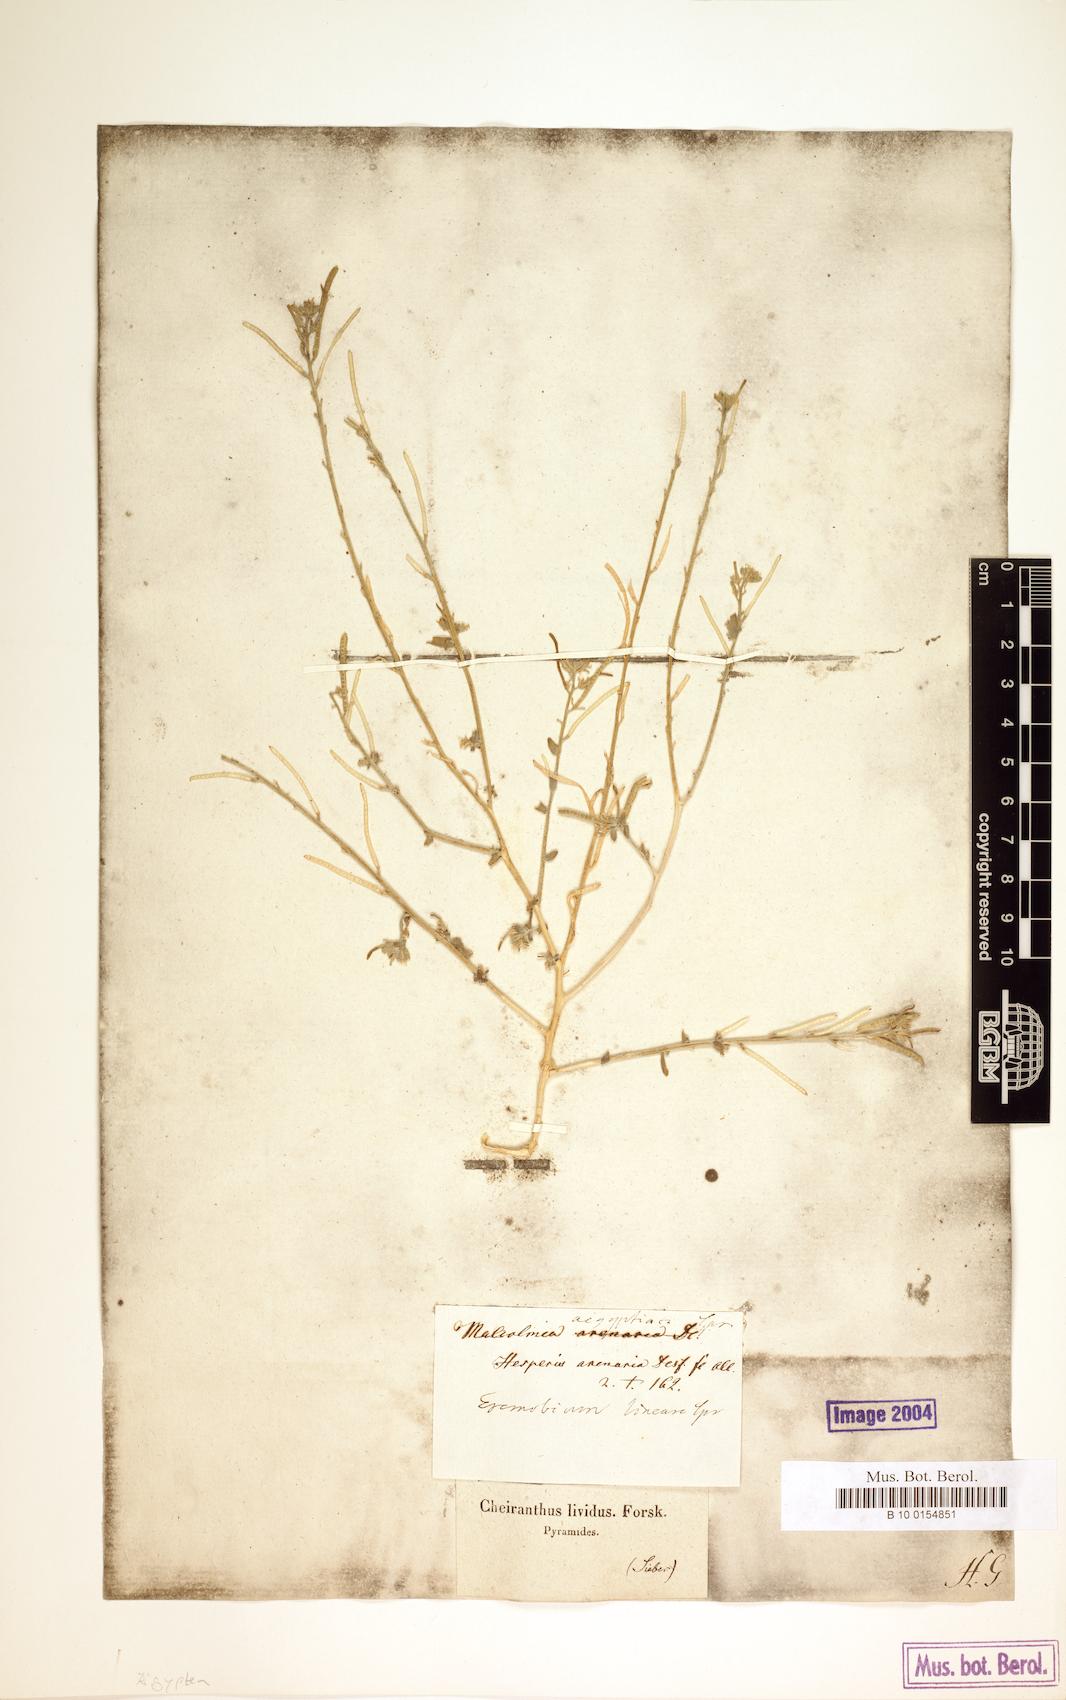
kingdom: Plantae
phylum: Tracheophyta
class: Magnoliopsida
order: Brassicales
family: Brassicaceae
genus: Eremobium
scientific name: Eremobium aegyptiacum
